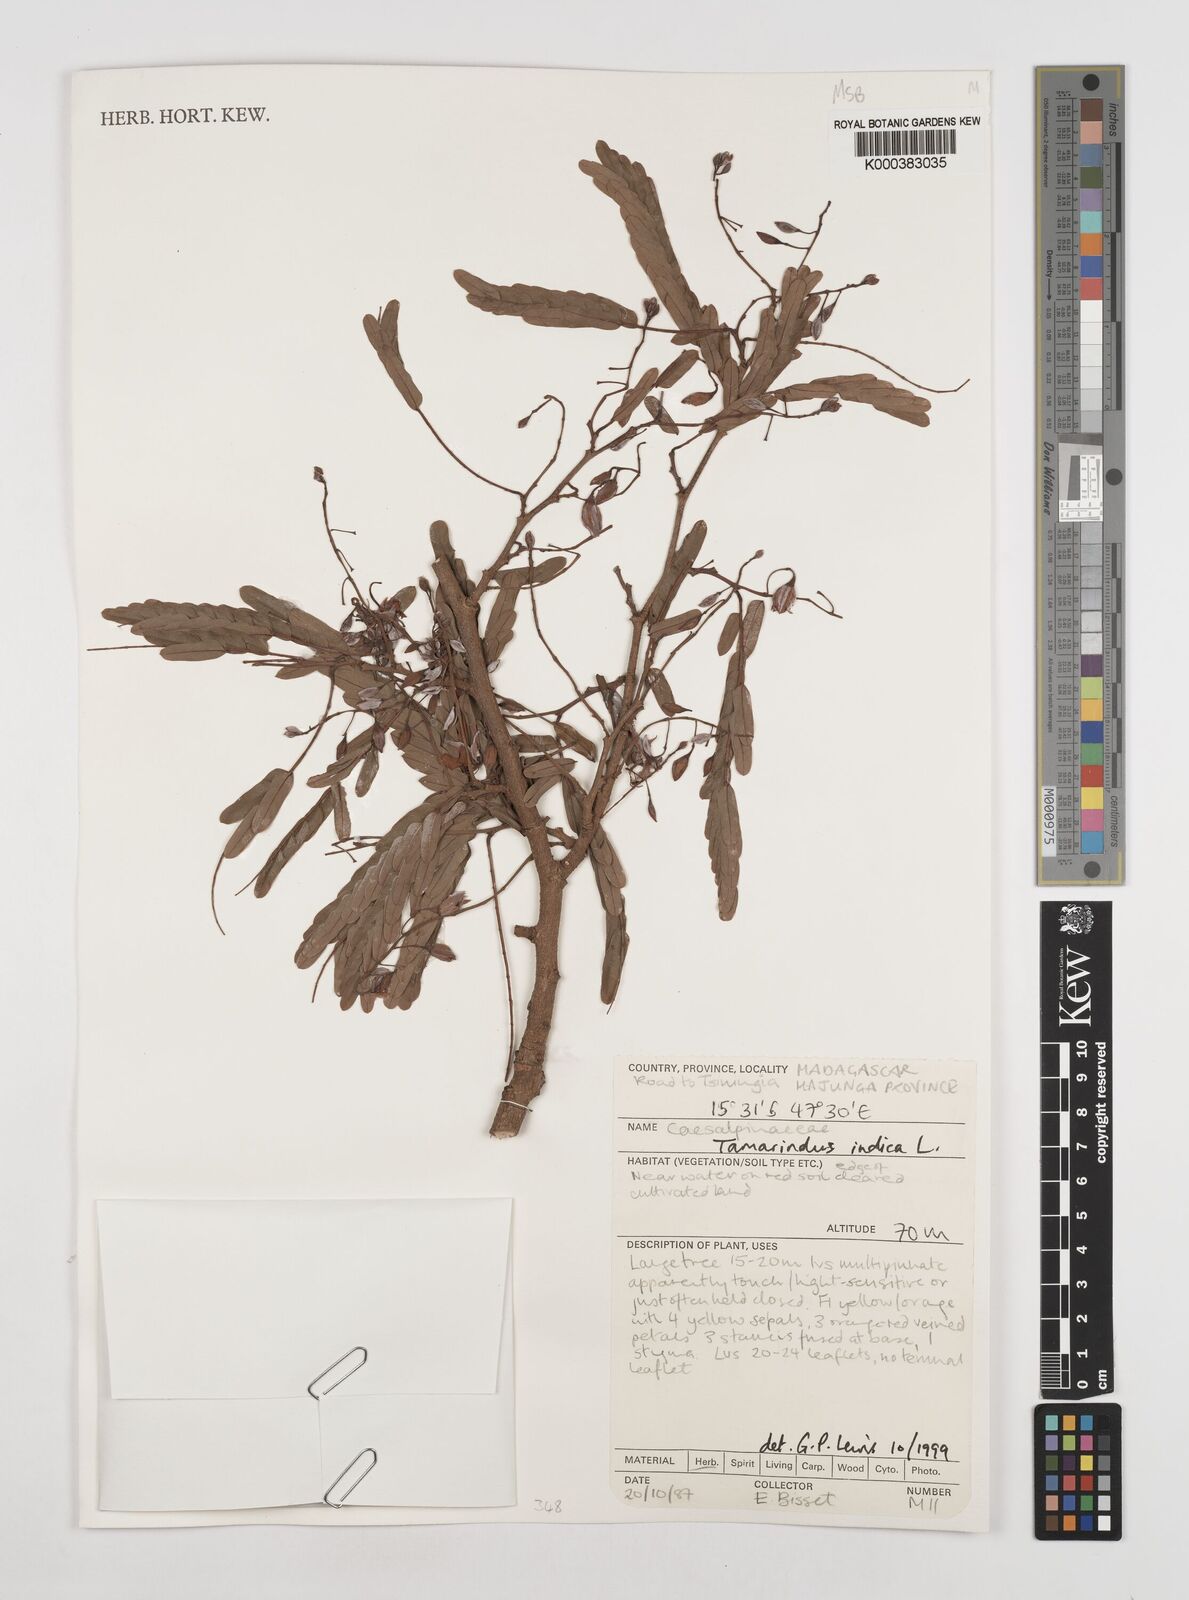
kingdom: Plantae
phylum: Tracheophyta
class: Magnoliopsida
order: Fabales
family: Fabaceae
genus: Tamarindus
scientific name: Tamarindus indica
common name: Tamarind
